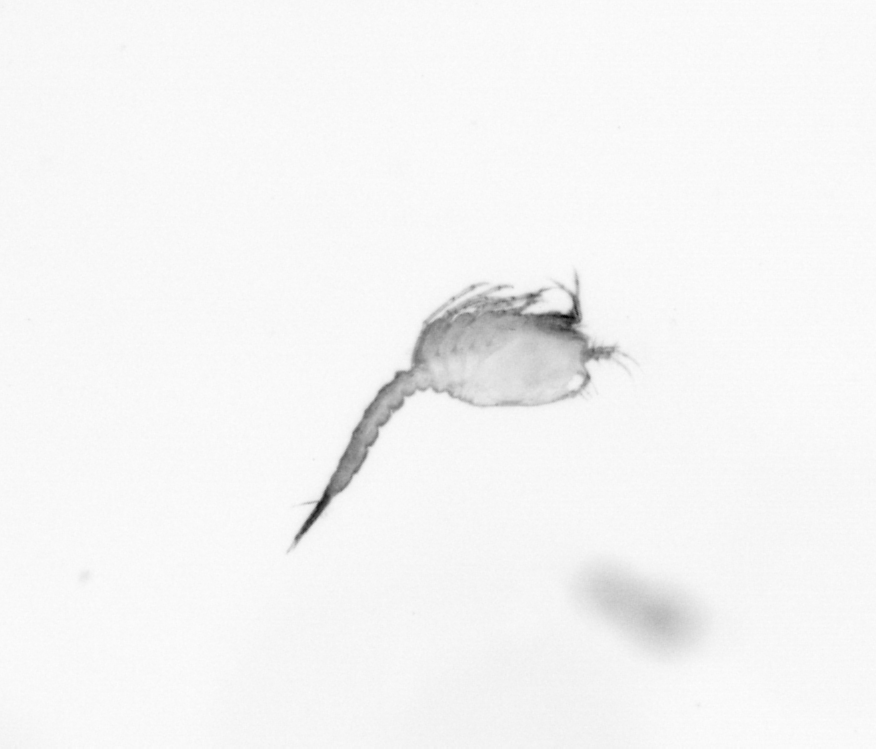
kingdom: Animalia
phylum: Arthropoda
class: Copepoda
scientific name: Copepoda
